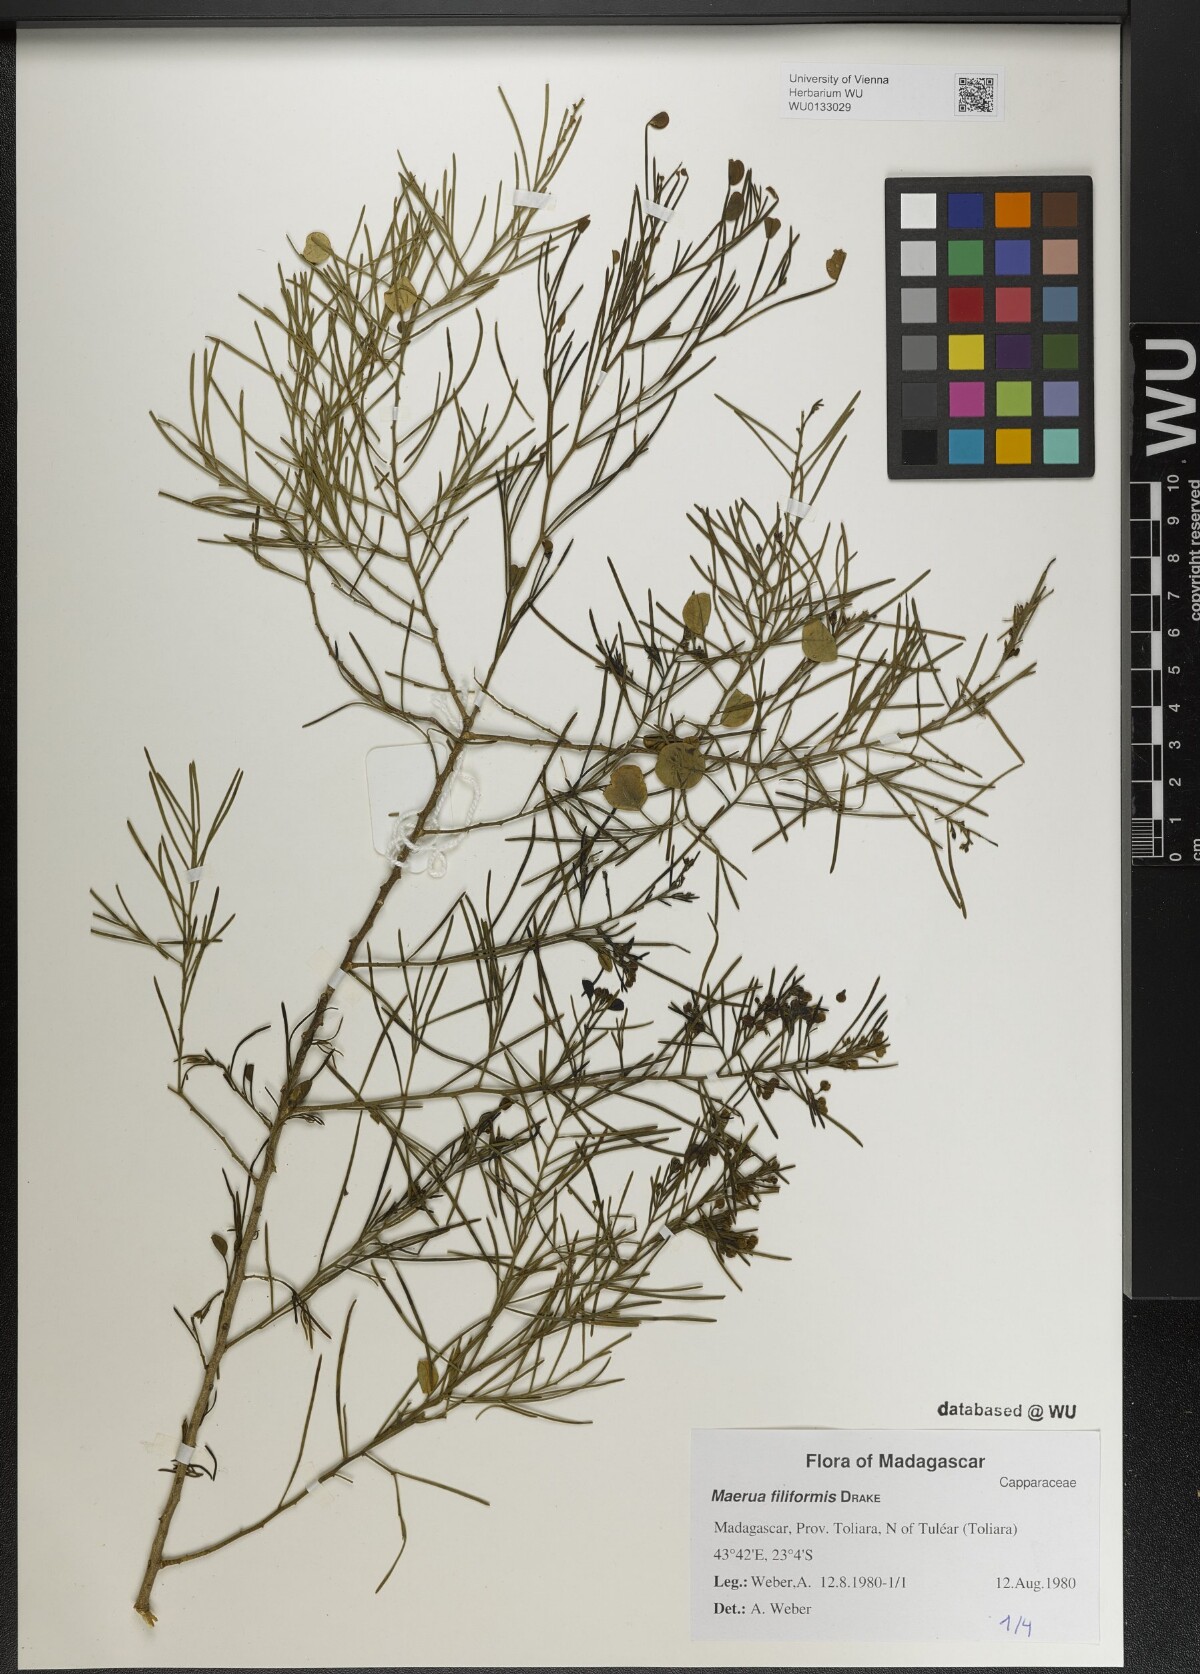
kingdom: Plantae
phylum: Tracheophyta
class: Magnoliopsida
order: Brassicales
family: Capparaceae
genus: Maerua
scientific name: Maerua filiformis
